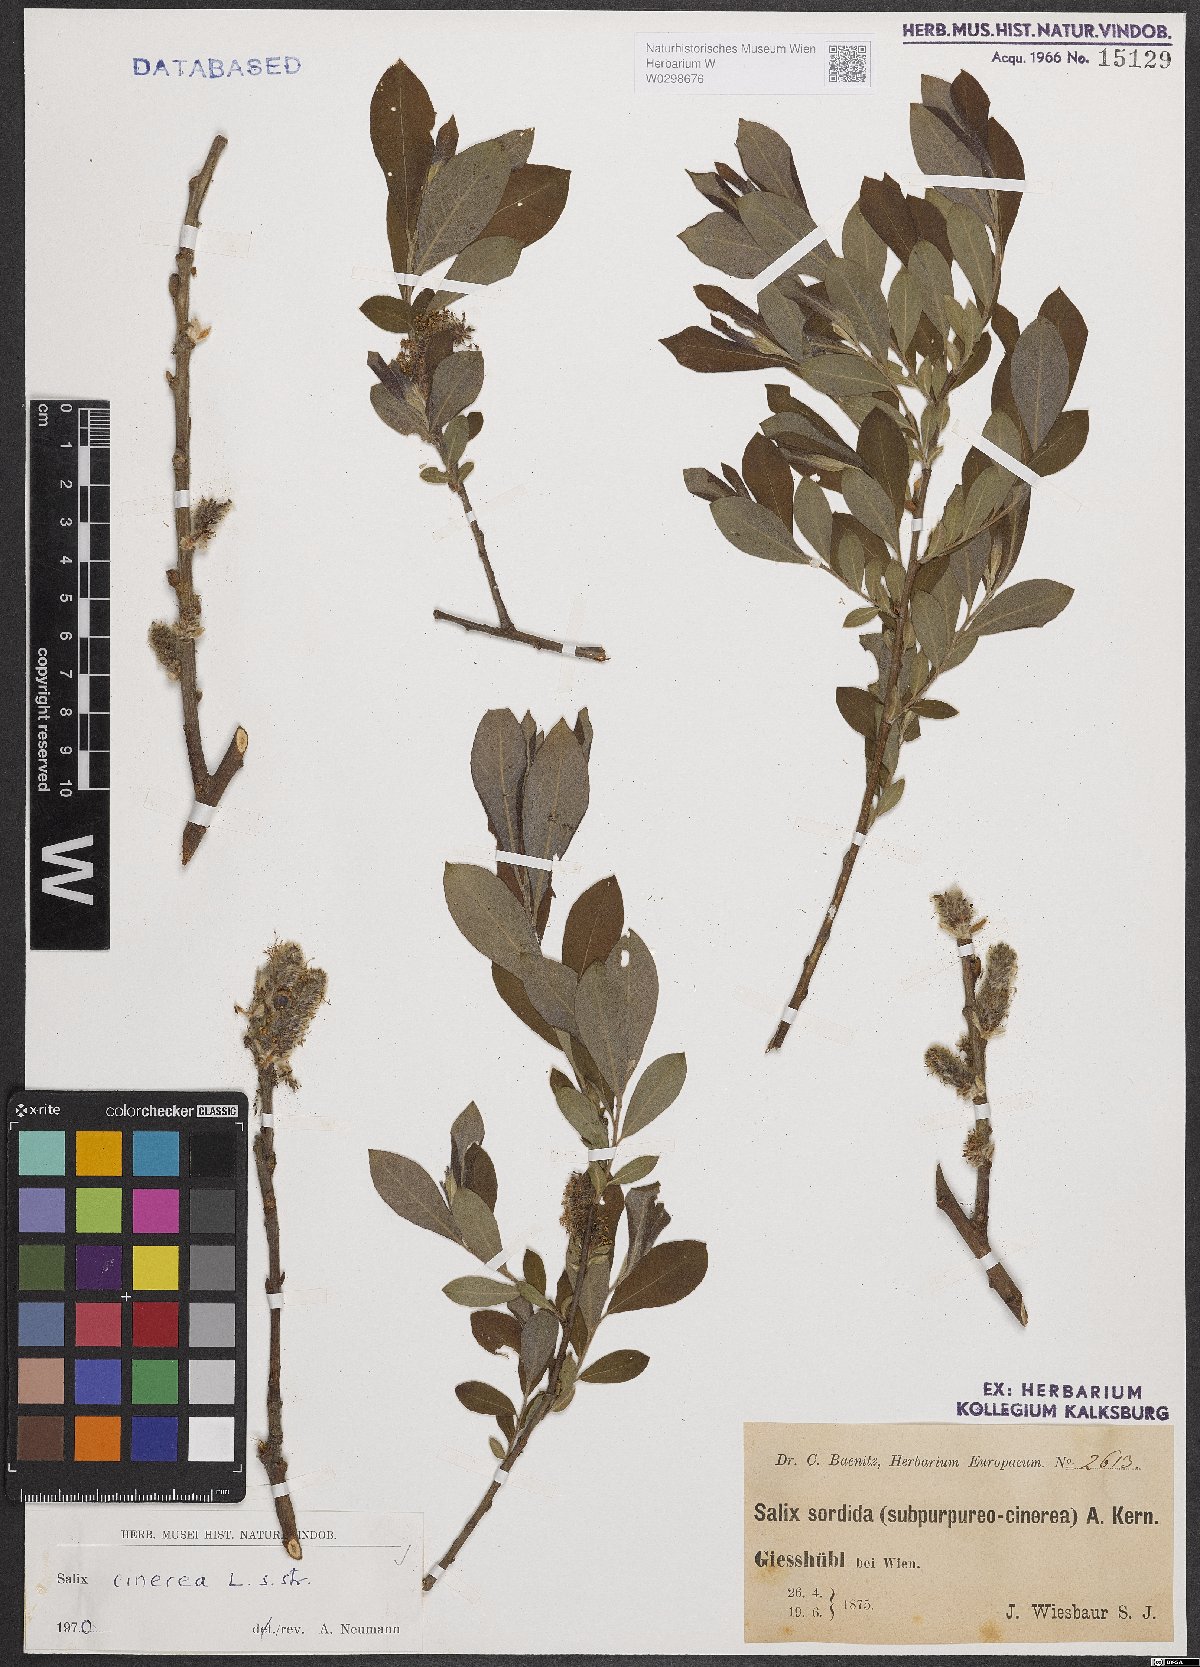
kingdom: Plantae
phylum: Tracheophyta
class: Magnoliopsida
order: Malpighiales
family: Salicaceae
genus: Salix
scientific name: Salix cinerea
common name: Common sallow
